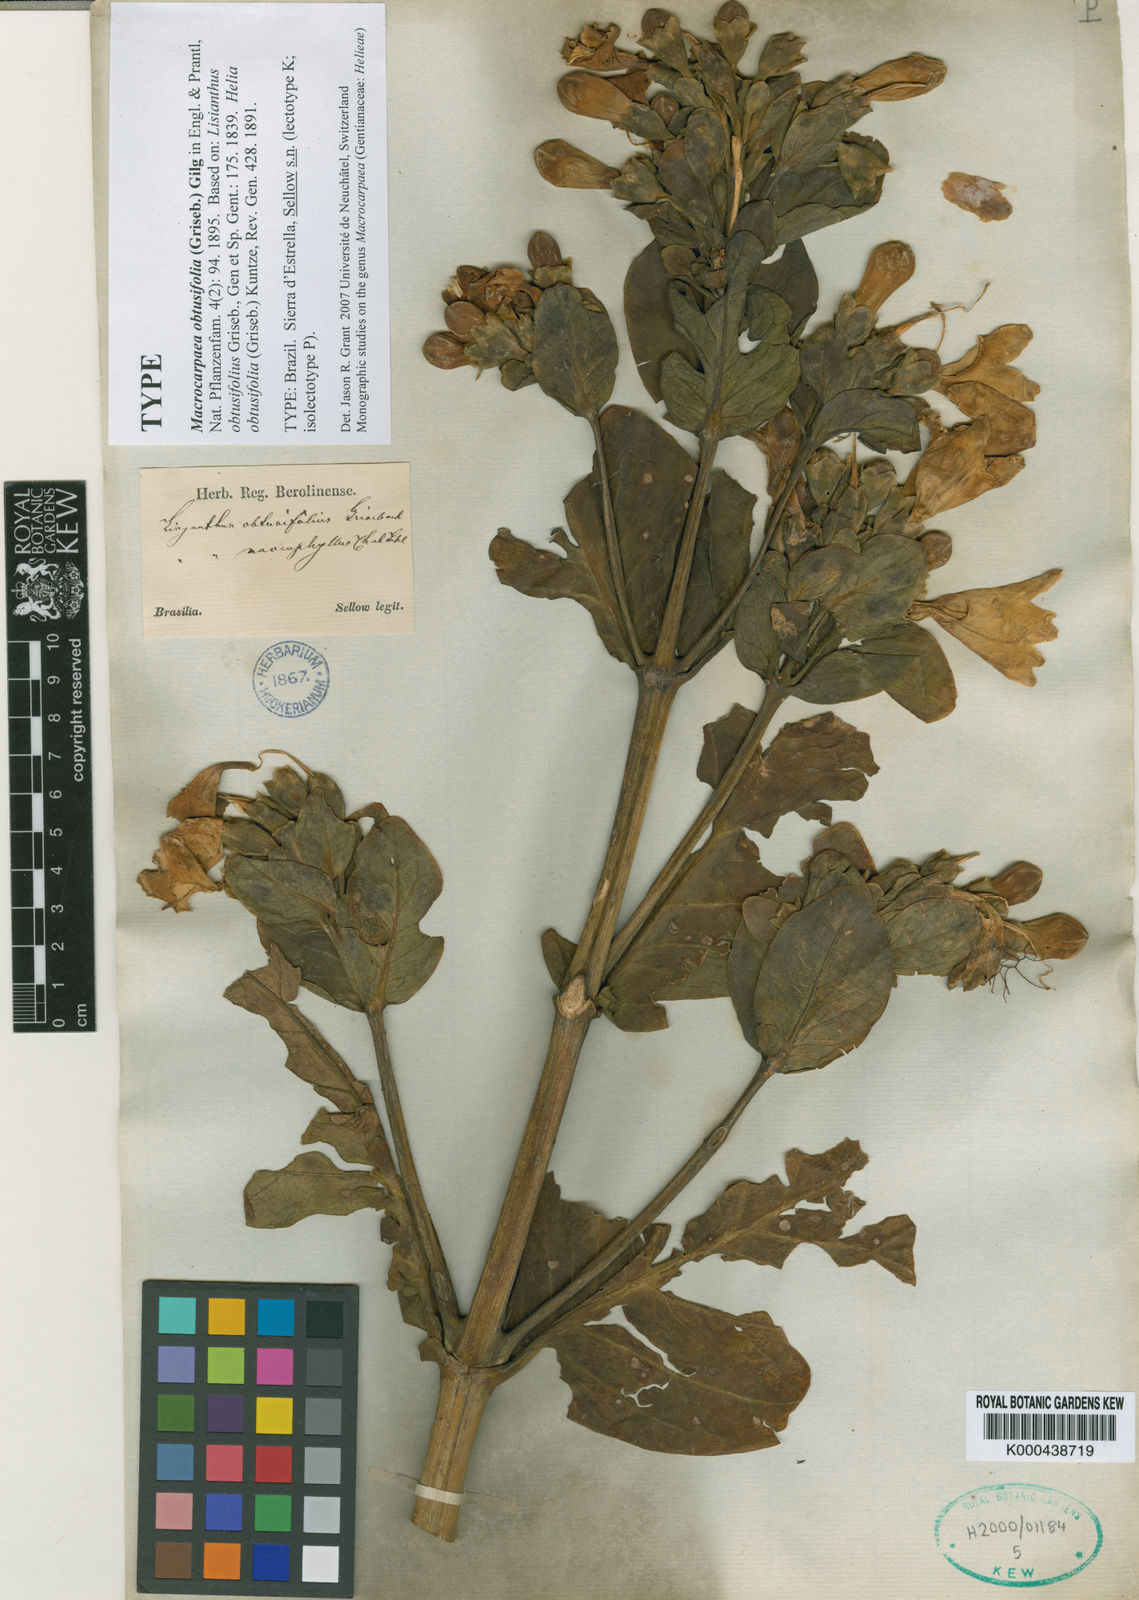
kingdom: Plantae
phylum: Tracheophyta
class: Magnoliopsida
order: Gentianales
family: Gentianaceae
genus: Macrocarpaea
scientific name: Macrocarpaea obtusifolia
